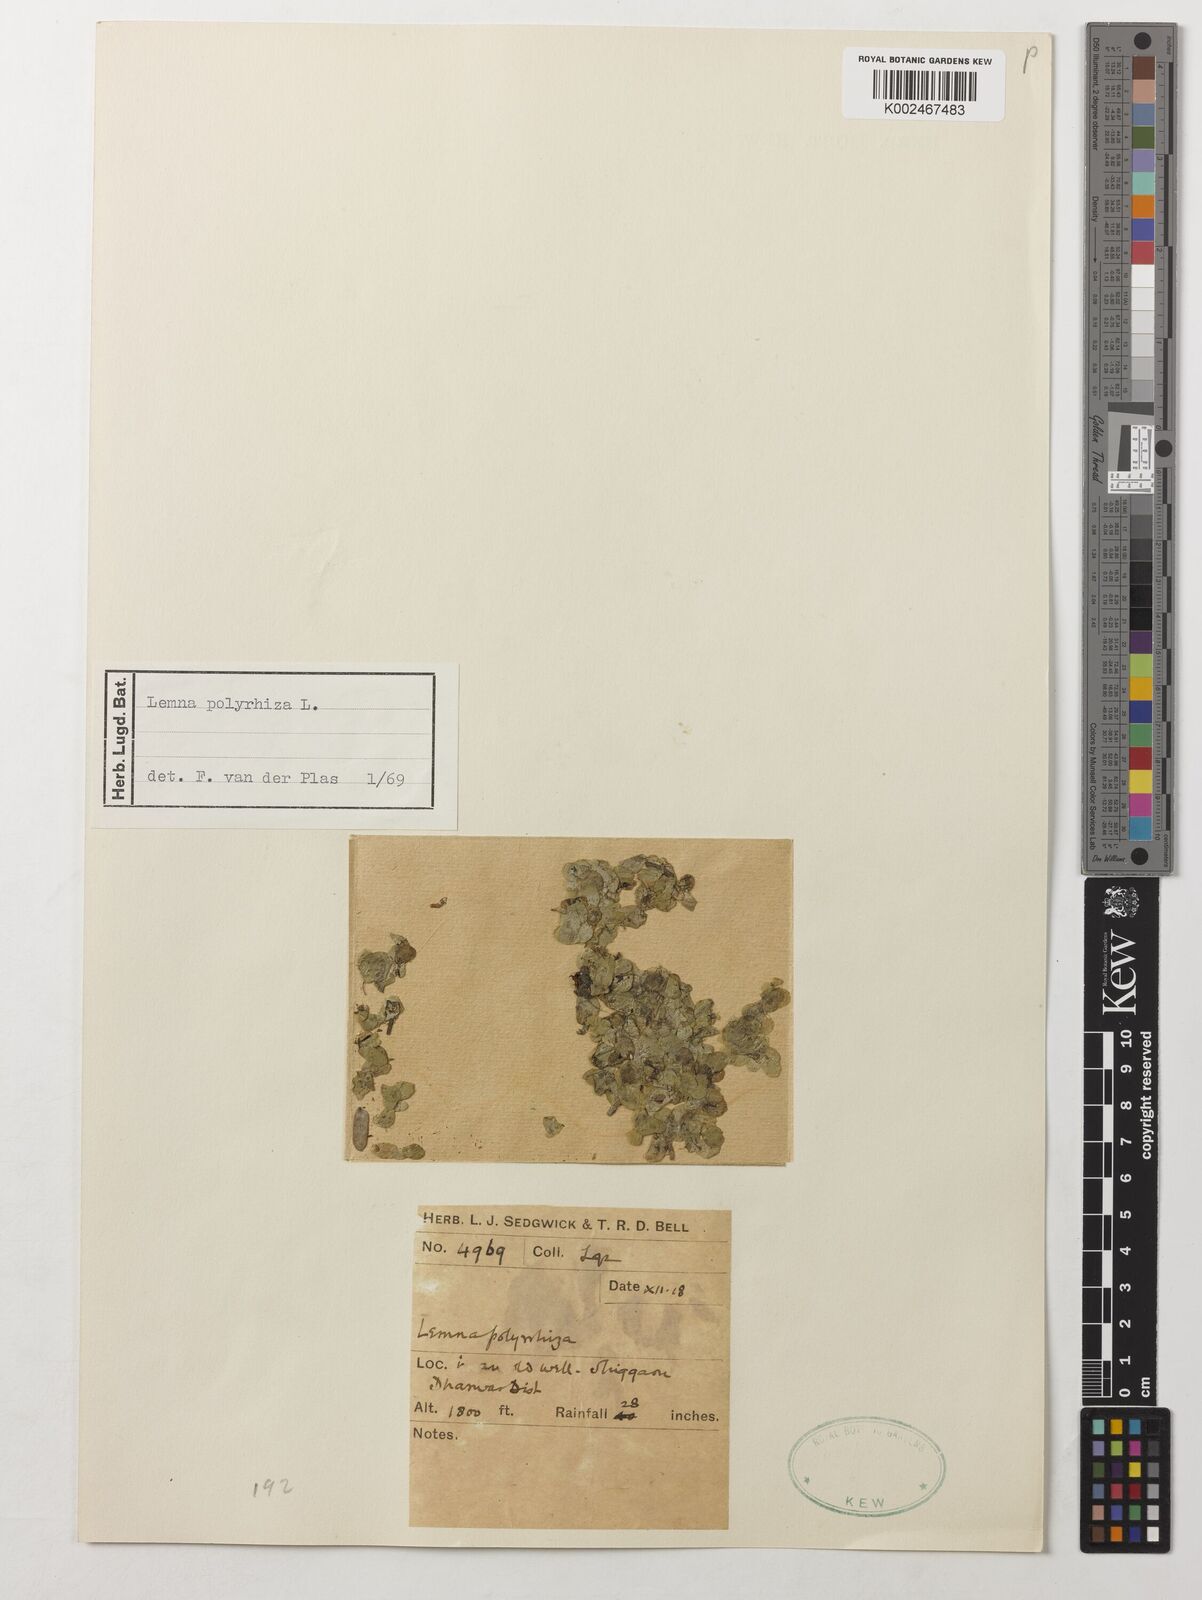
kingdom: Plantae
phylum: Tracheophyta
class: Liliopsida
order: Alismatales
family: Araceae
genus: Spirodela
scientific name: Spirodela polyrhiza
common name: Great duckweed
